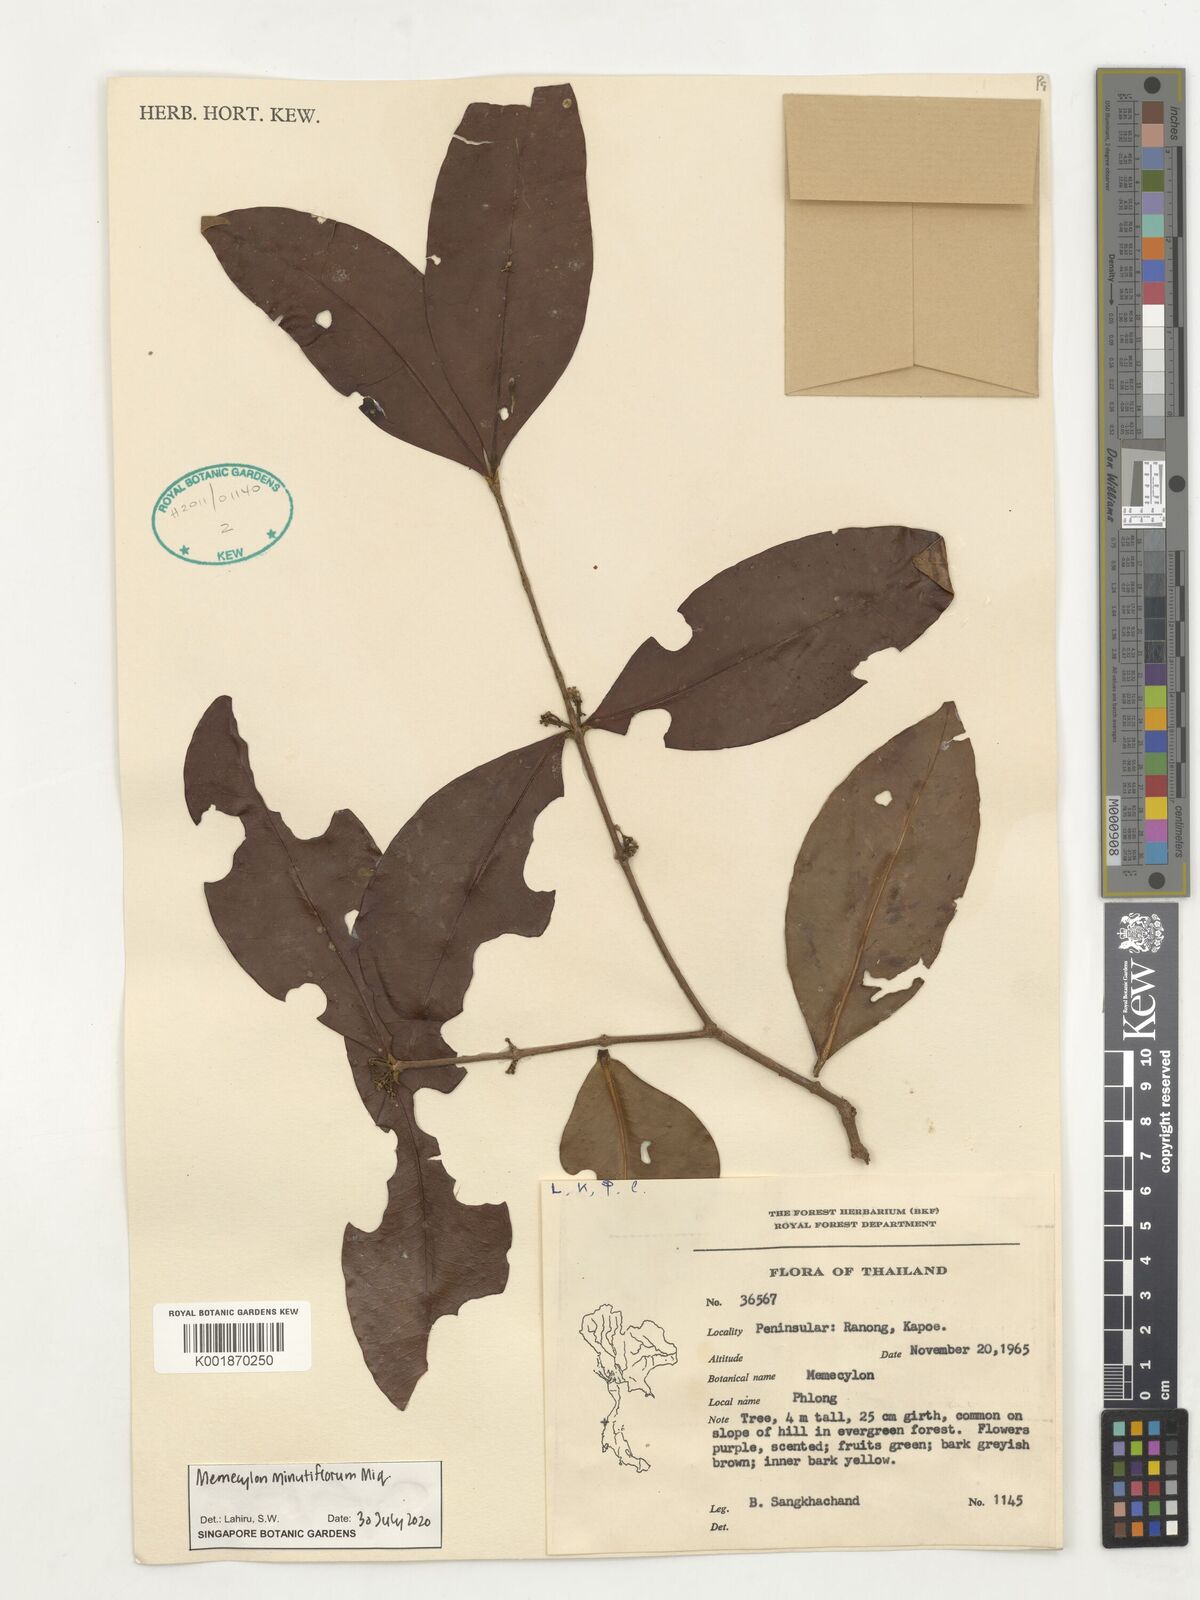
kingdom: Plantae
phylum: Tracheophyta
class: Magnoliopsida
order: Myrtales
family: Melastomataceae
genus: Memecylon
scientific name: Memecylon minutiflorum
